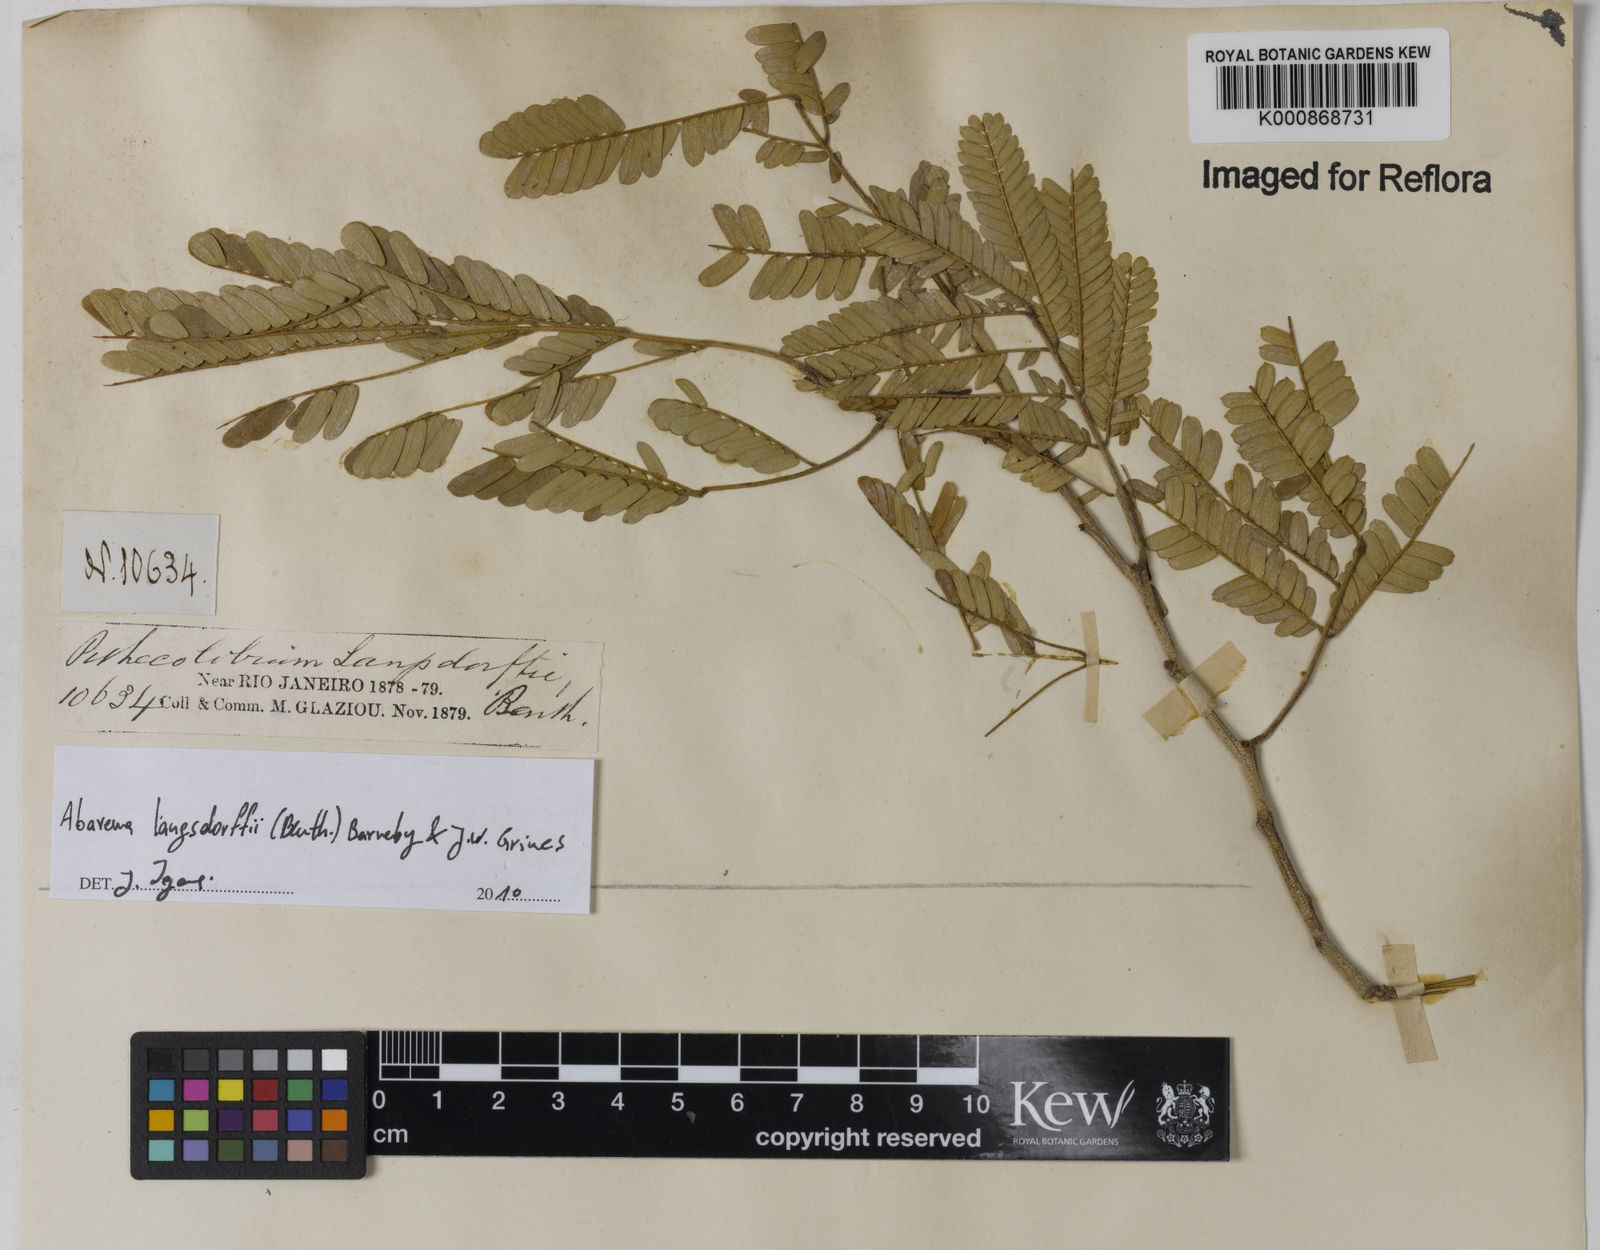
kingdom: Plantae
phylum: Tracheophyta
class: Magnoliopsida
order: Fabales
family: Fabaceae
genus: Jupunba
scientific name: Jupunba langsdorffii
